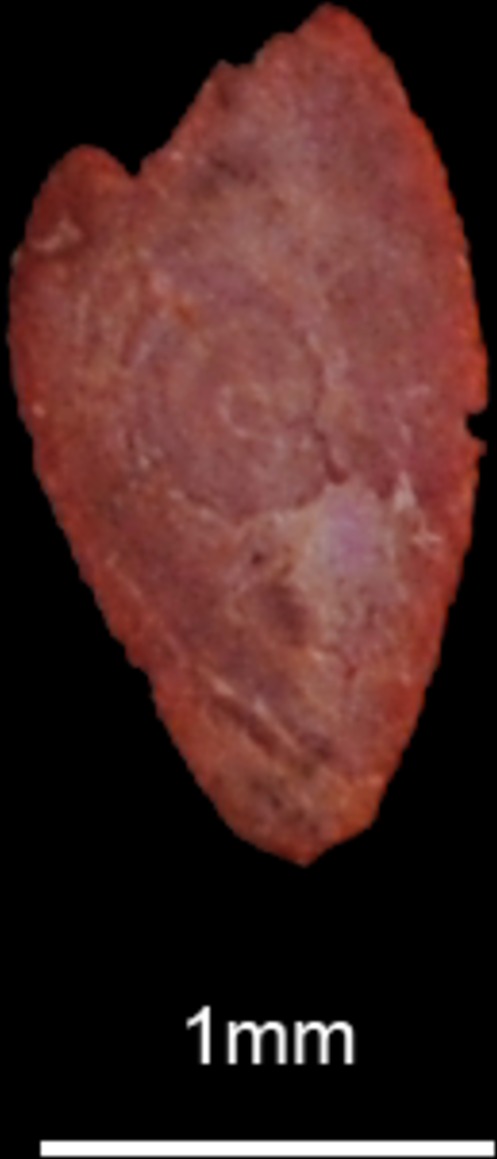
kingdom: Animalia
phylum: Chordata
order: Perciformes
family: Labridae
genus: Coris
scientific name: Coris julis
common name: Rainbow wrasse
